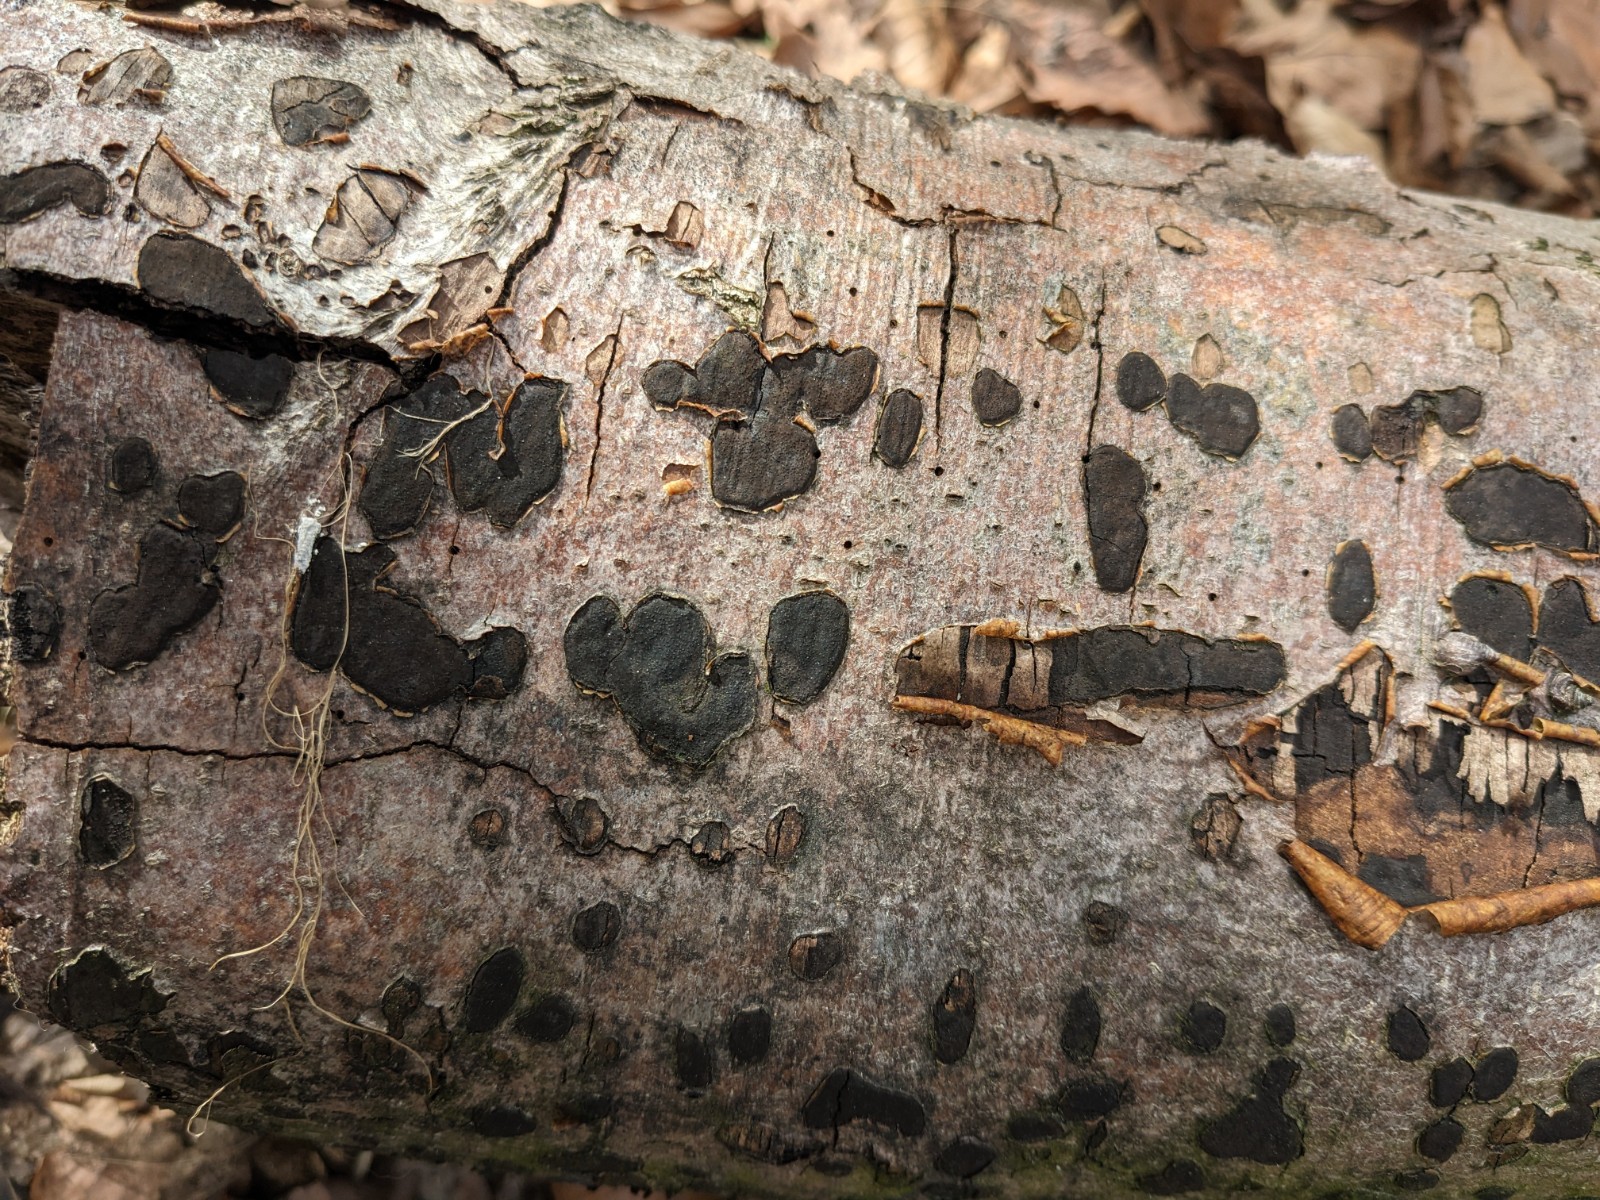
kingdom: Fungi
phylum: Ascomycota
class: Sordariomycetes
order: Xylariales
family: Graphostromataceae
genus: Biscogniauxia
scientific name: Biscogniauxia nummularia
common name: bøge-kulskive
